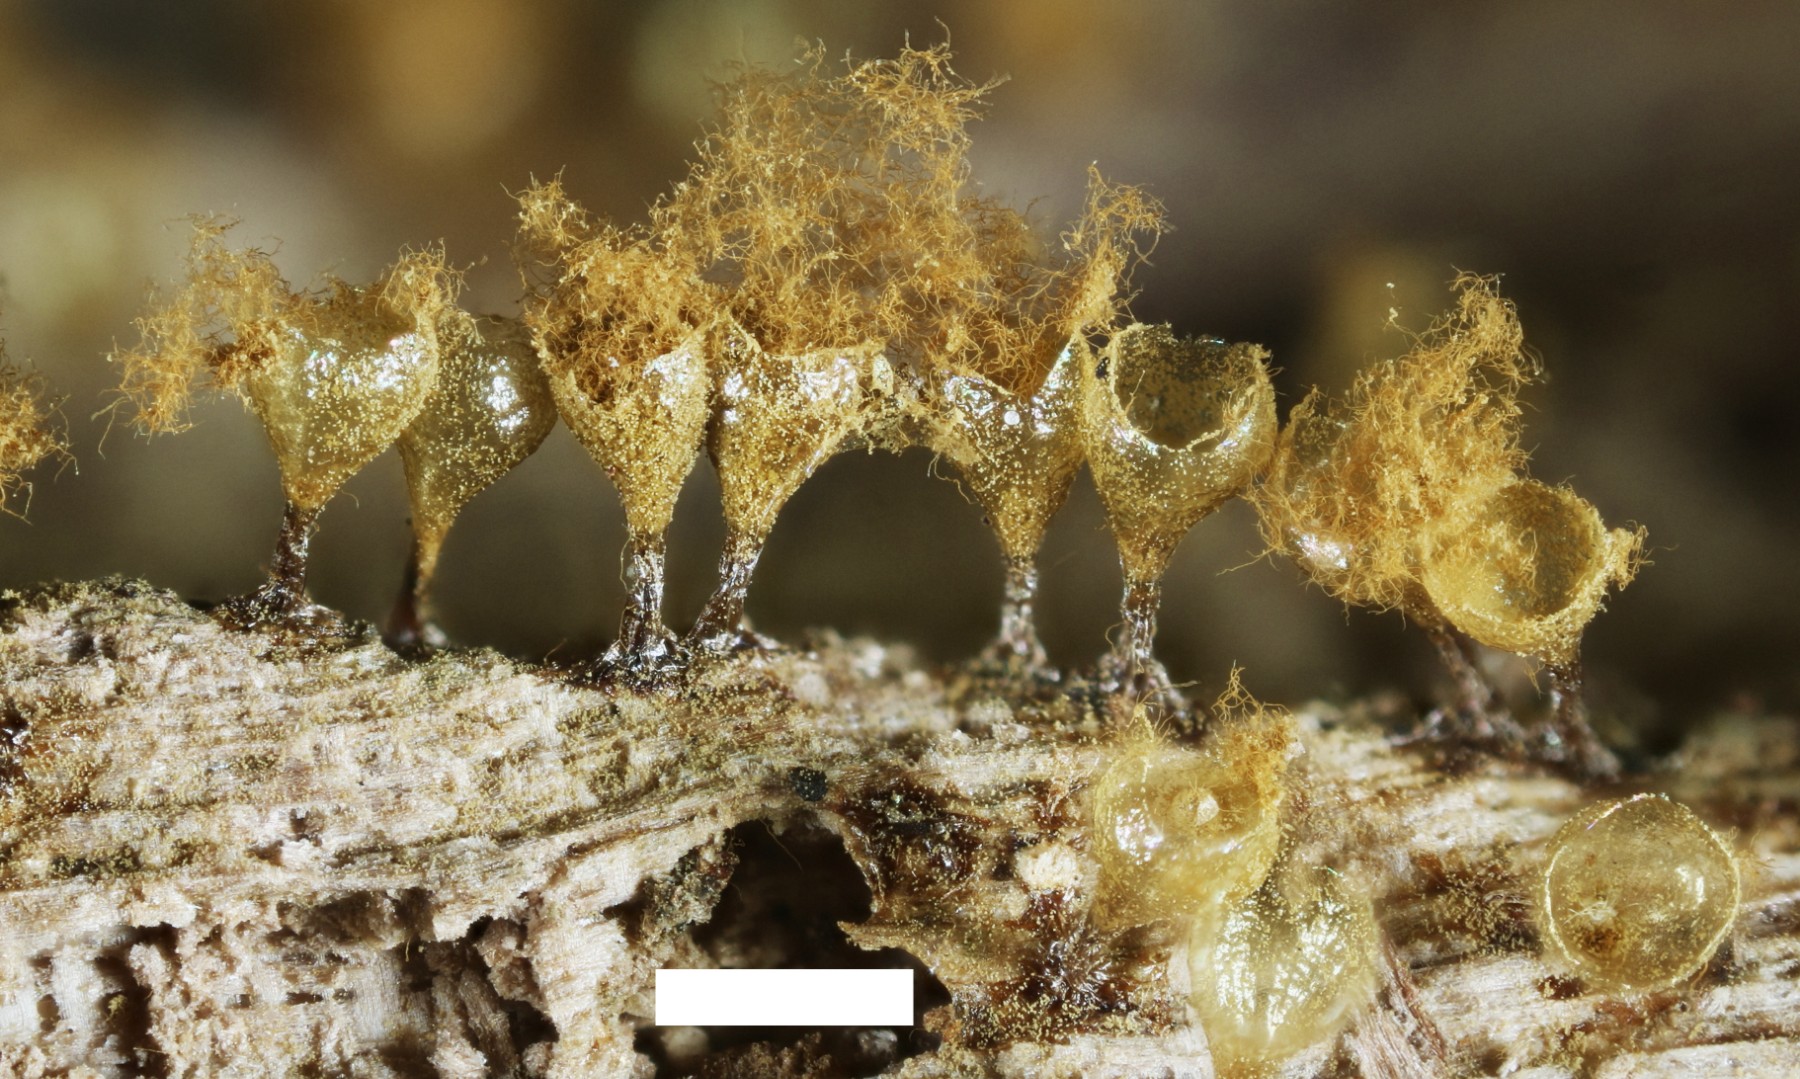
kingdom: Protozoa
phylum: Mycetozoa
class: Myxomycetes
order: Trichiales
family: Arcyriaceae
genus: Hemitrichia
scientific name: Hemitrichia decipiens
